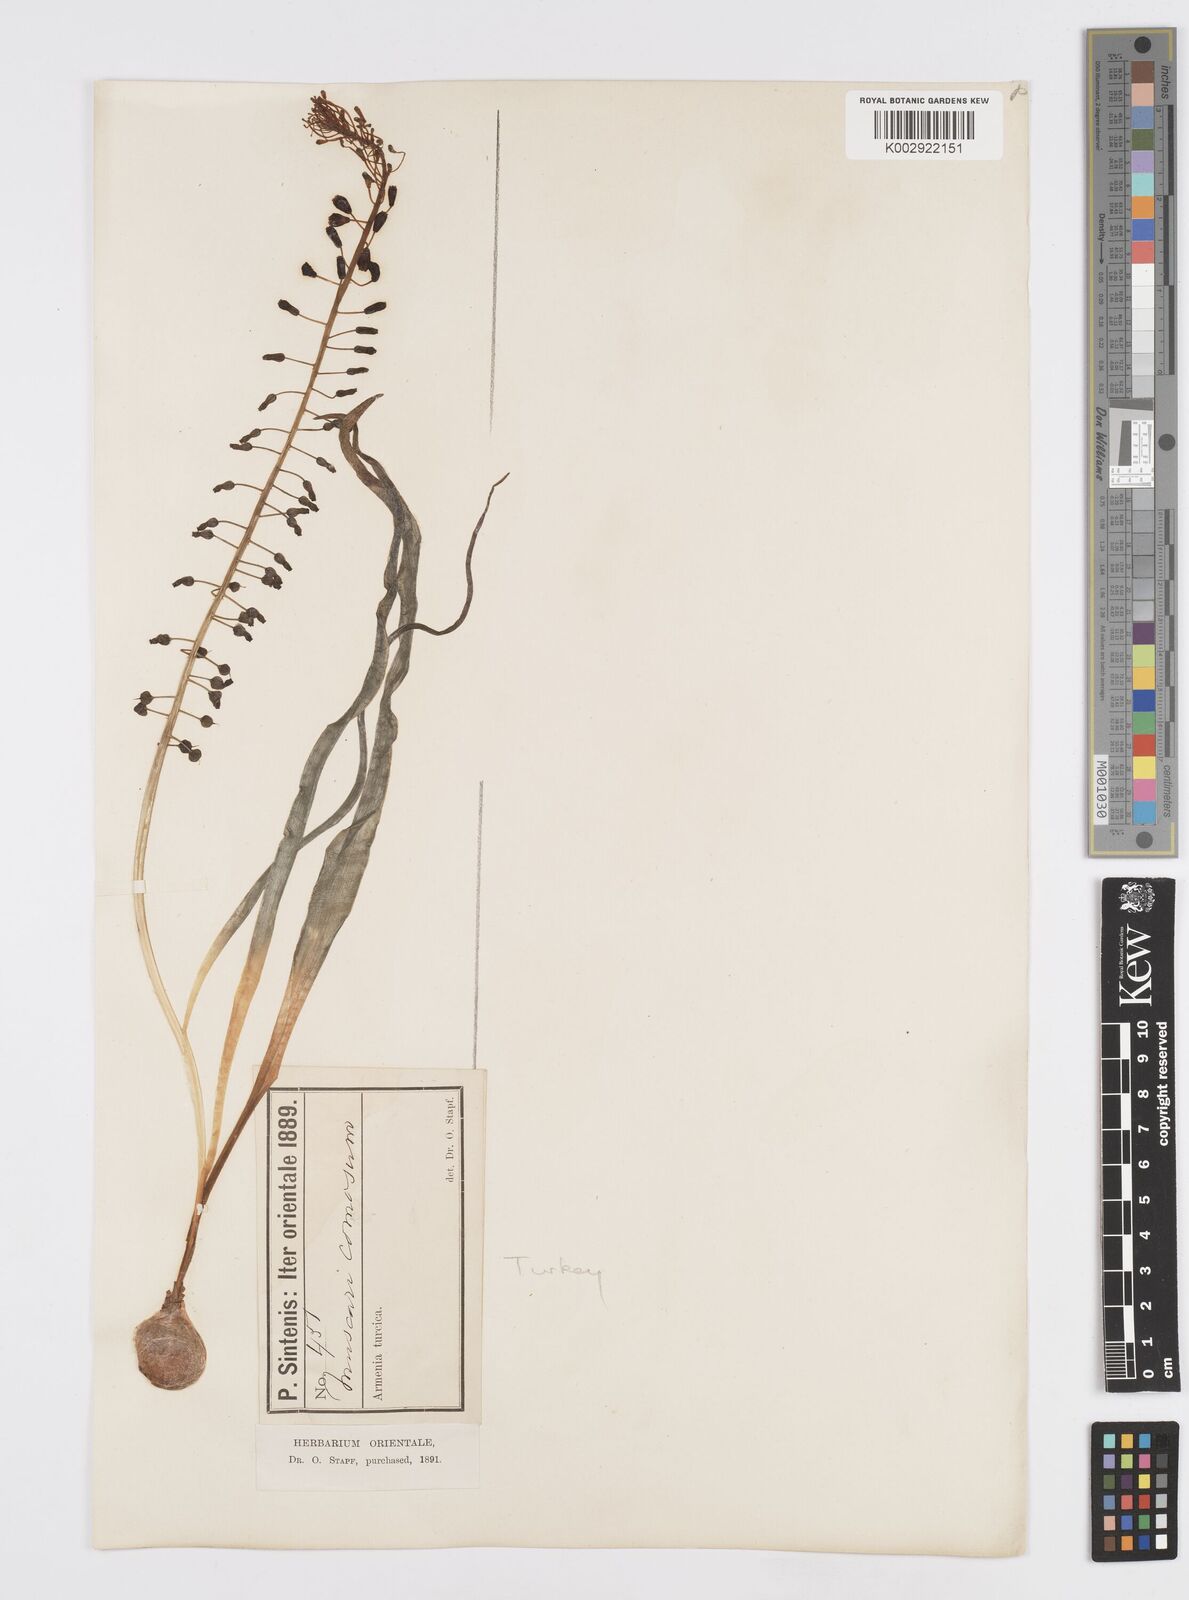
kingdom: Plantae
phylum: Tracheophyta
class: Liliopsida
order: Asparagales
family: Asparagaceae
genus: Muscari
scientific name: Muscari comosum
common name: Tassel hyacinth
